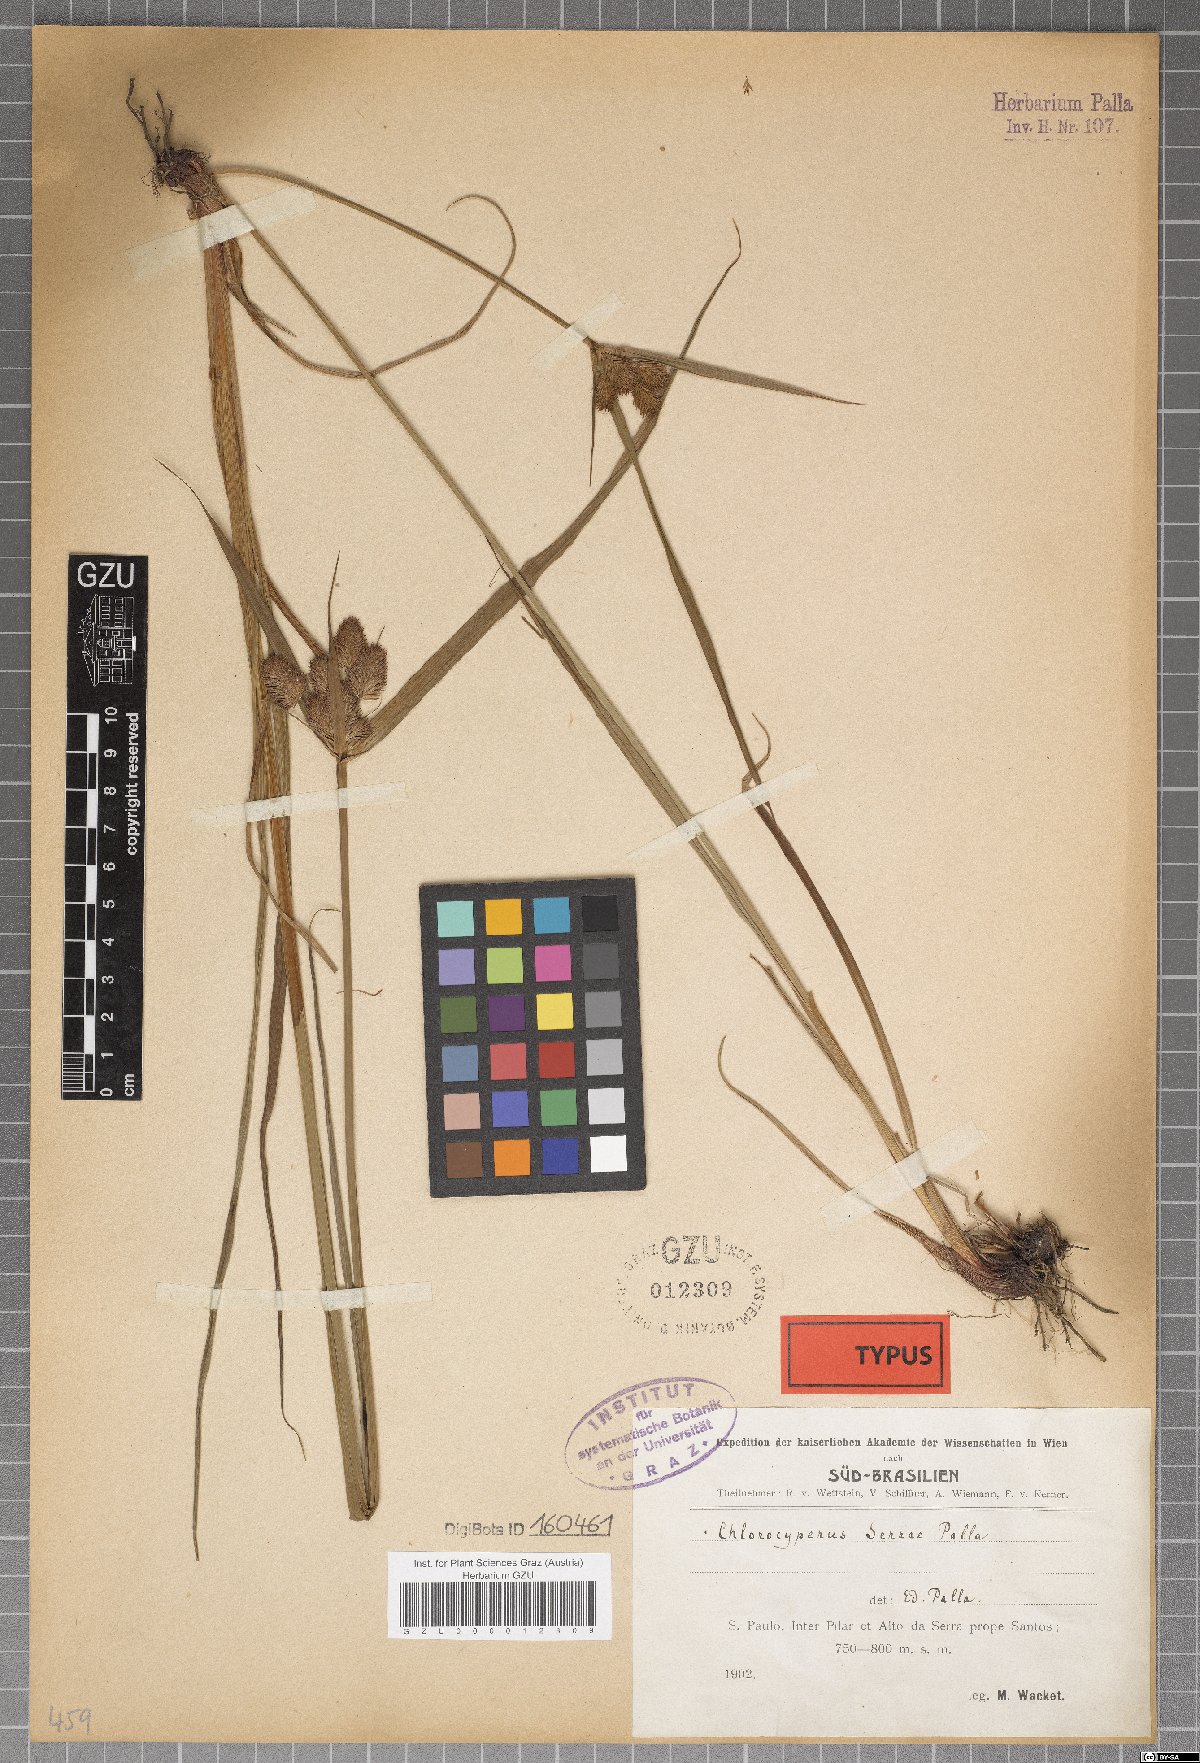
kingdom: Plantae
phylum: Tracheophyta
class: Liliopsida
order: Poales
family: Cyperaceae
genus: Cyperus
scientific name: Cyperus rigens
